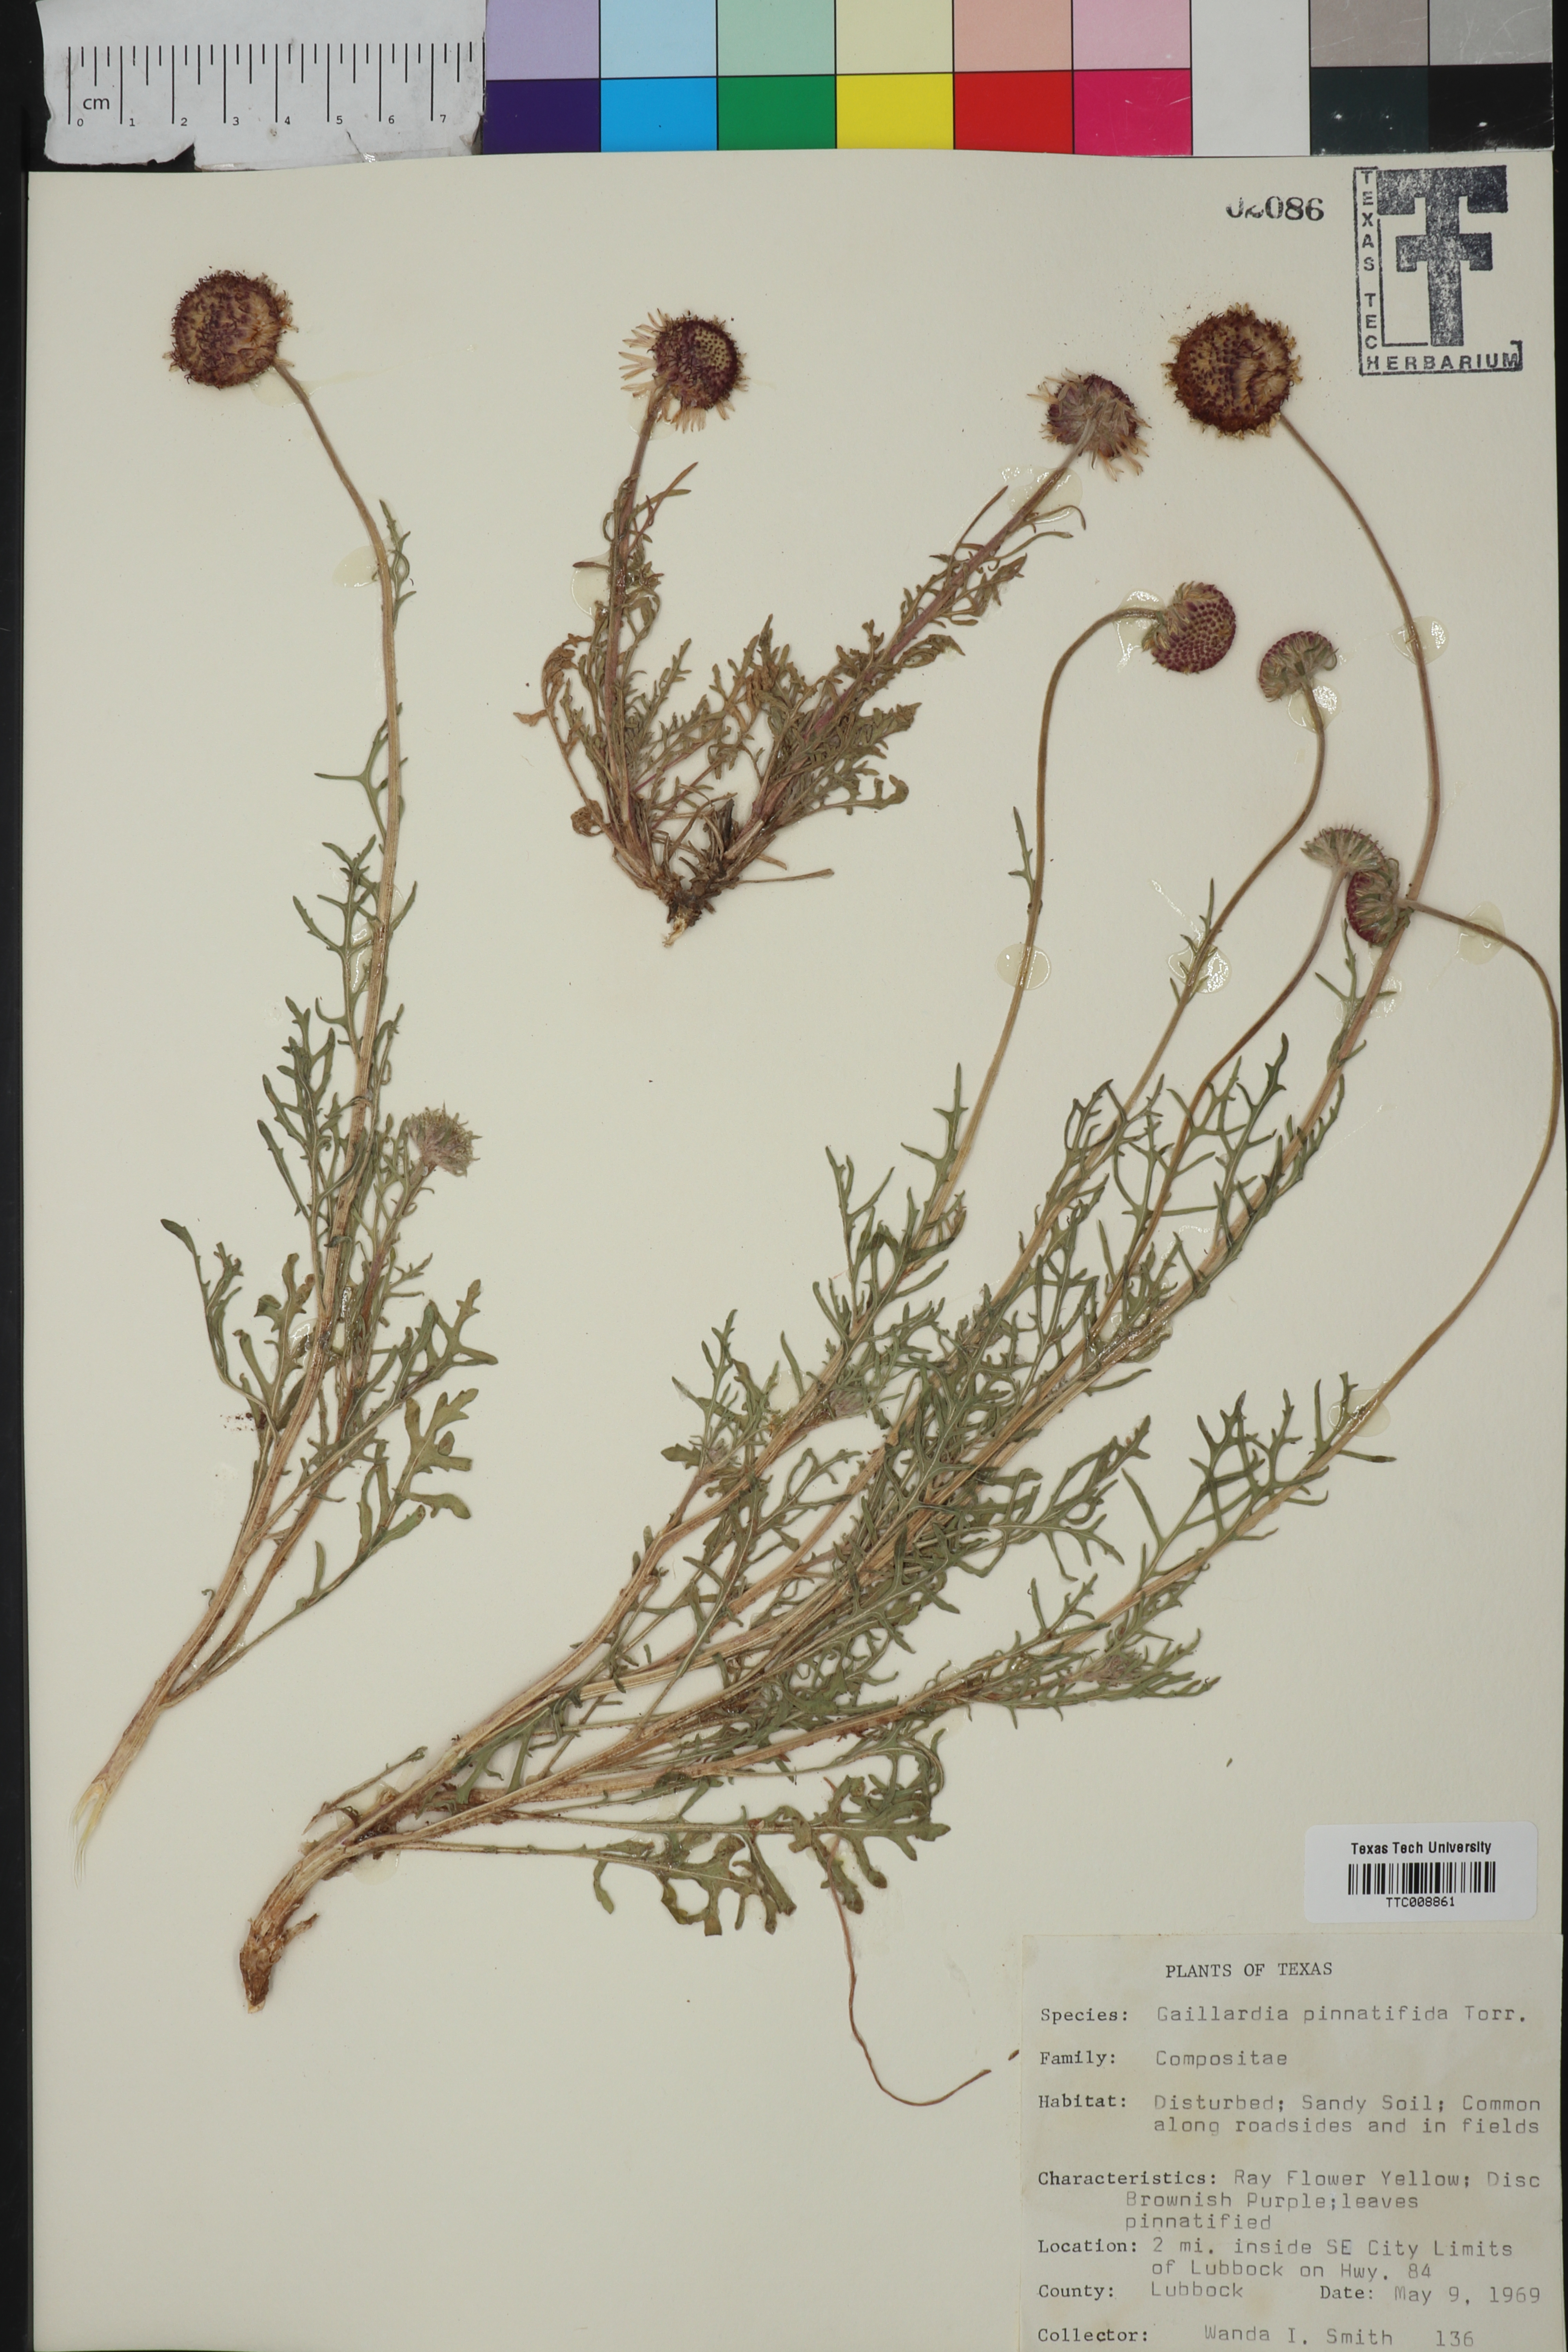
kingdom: Plantae
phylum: Tracheophyta
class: Magnoliopsida
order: Asterales
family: Asteraceae
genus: Gaillardia
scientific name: Gaillardia pinnatifida
